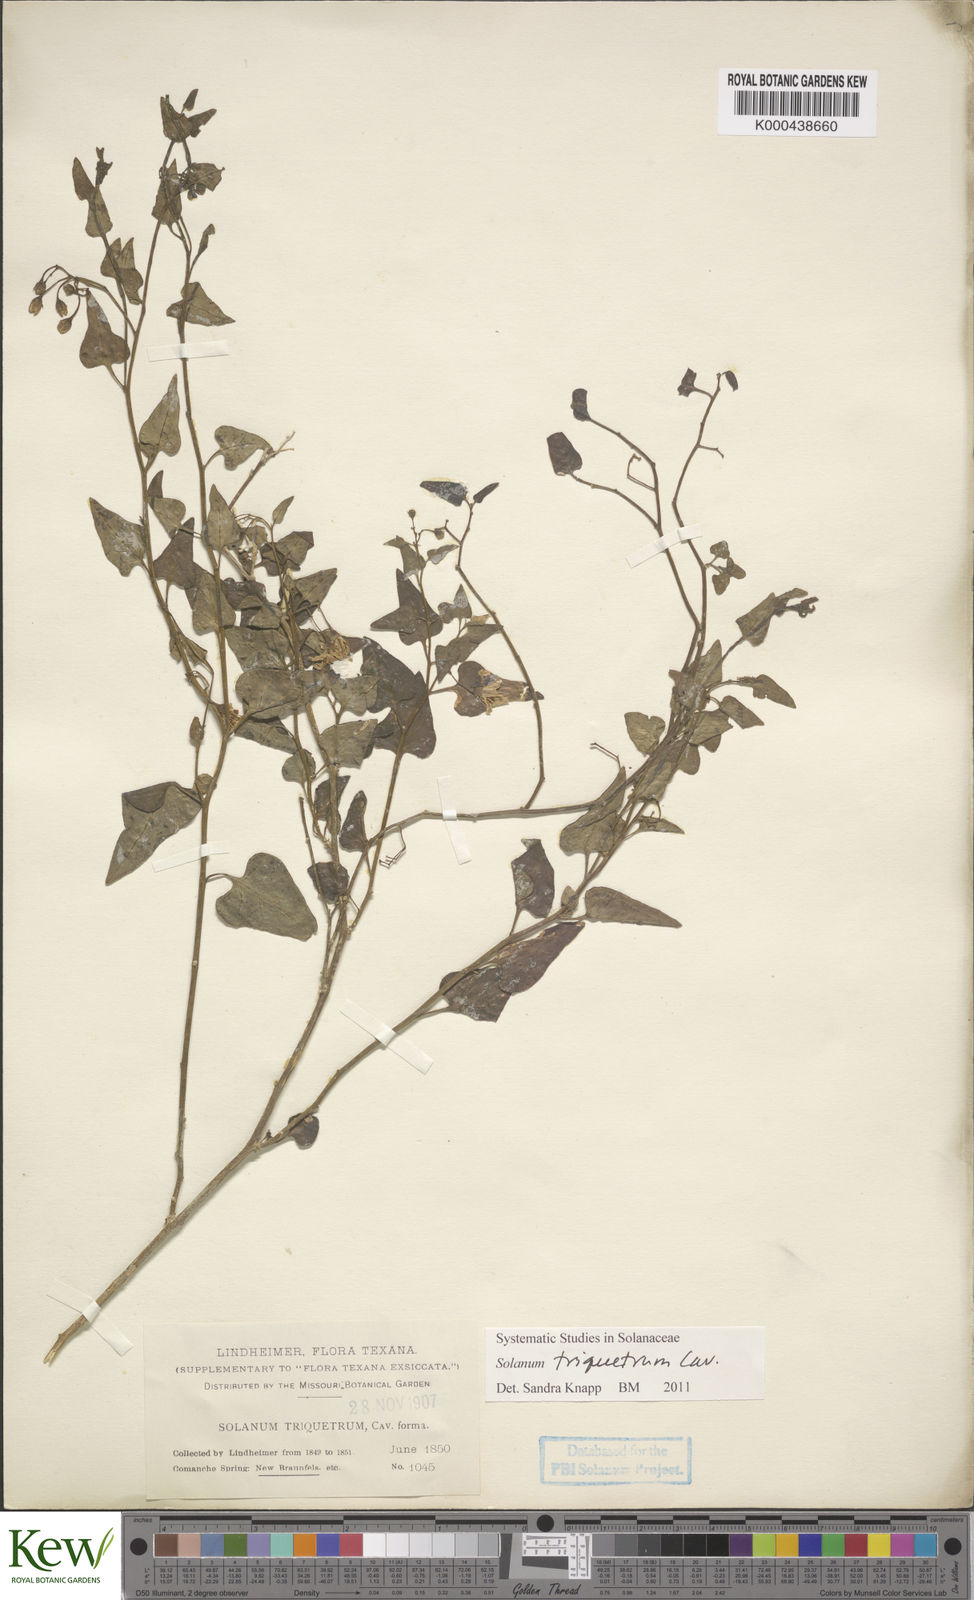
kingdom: Plantae
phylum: Tracheophyta
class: Magnoliopsida
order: Solanales
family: Solanaceae
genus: Solanum
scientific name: Solanum triquetrum
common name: Texas nightshade
